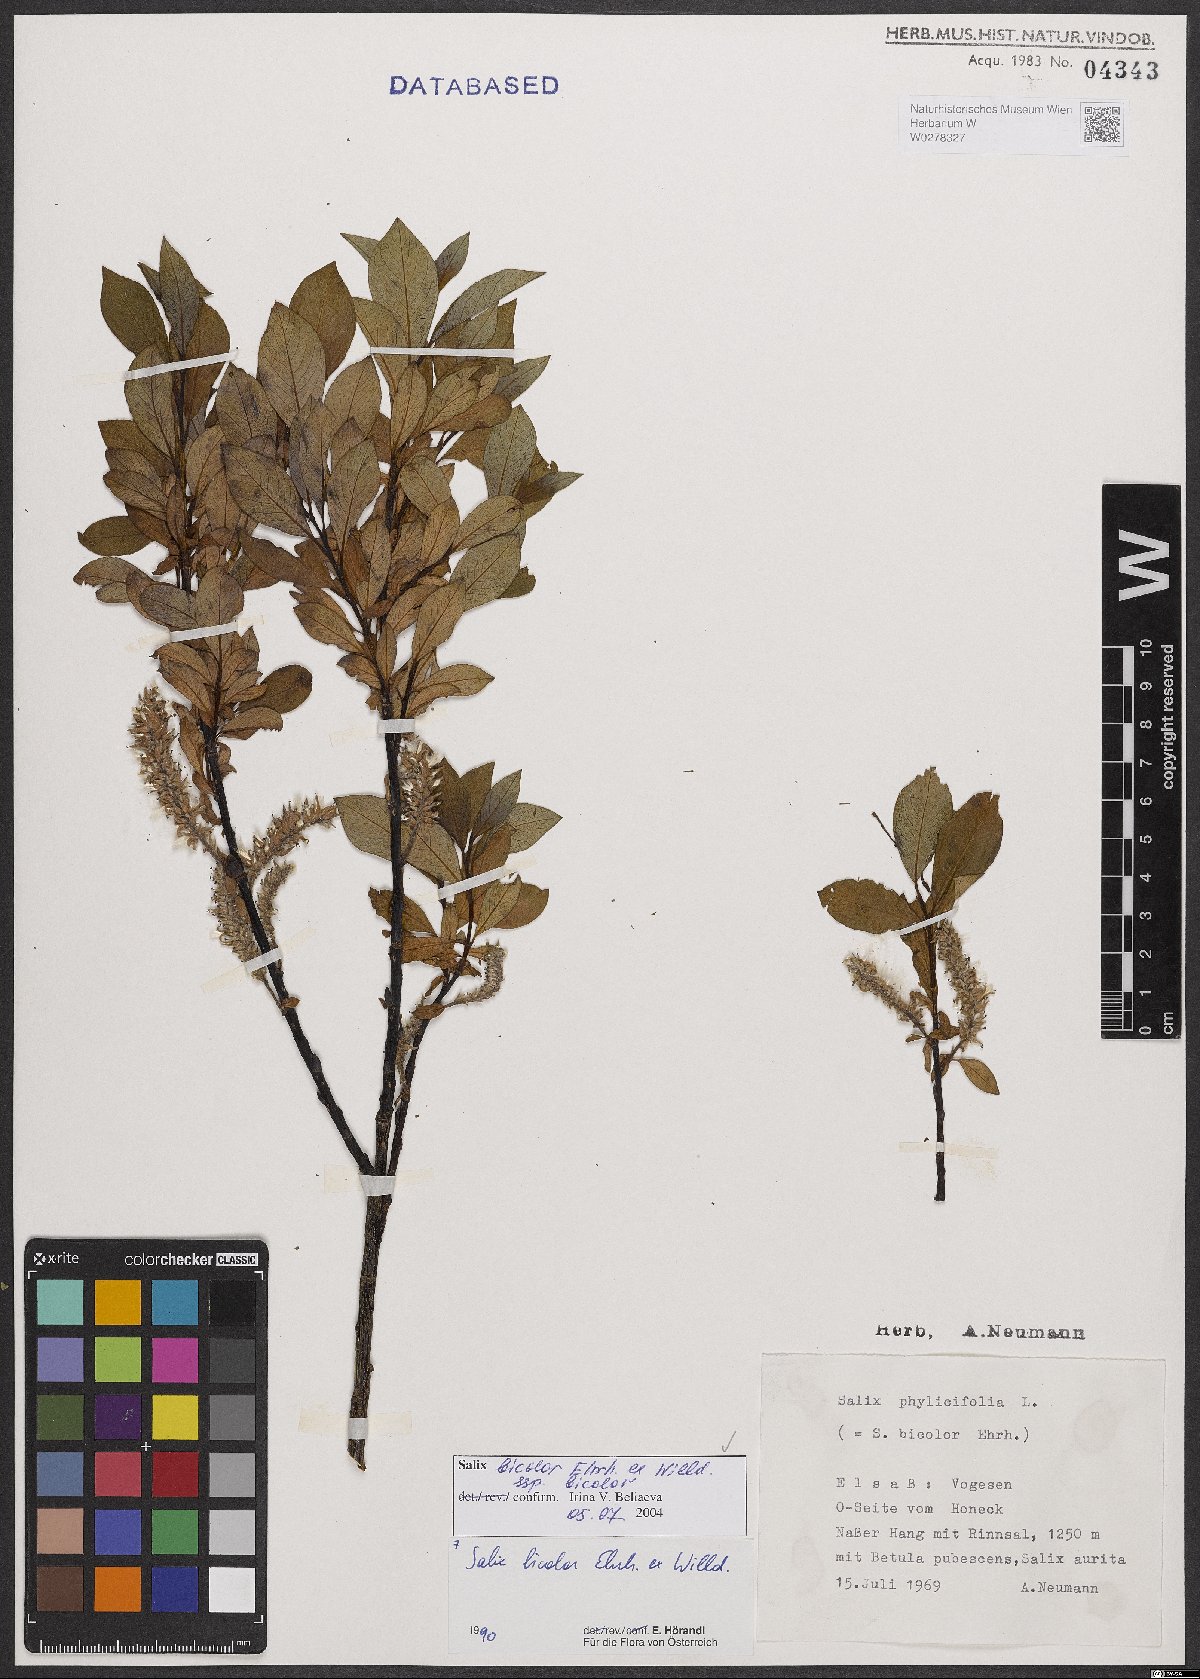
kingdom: Plantae
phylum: Tracheophyta
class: Magnoliopsida
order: Malpighiales
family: Salicaceae
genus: Salix
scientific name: Salix bicolor
